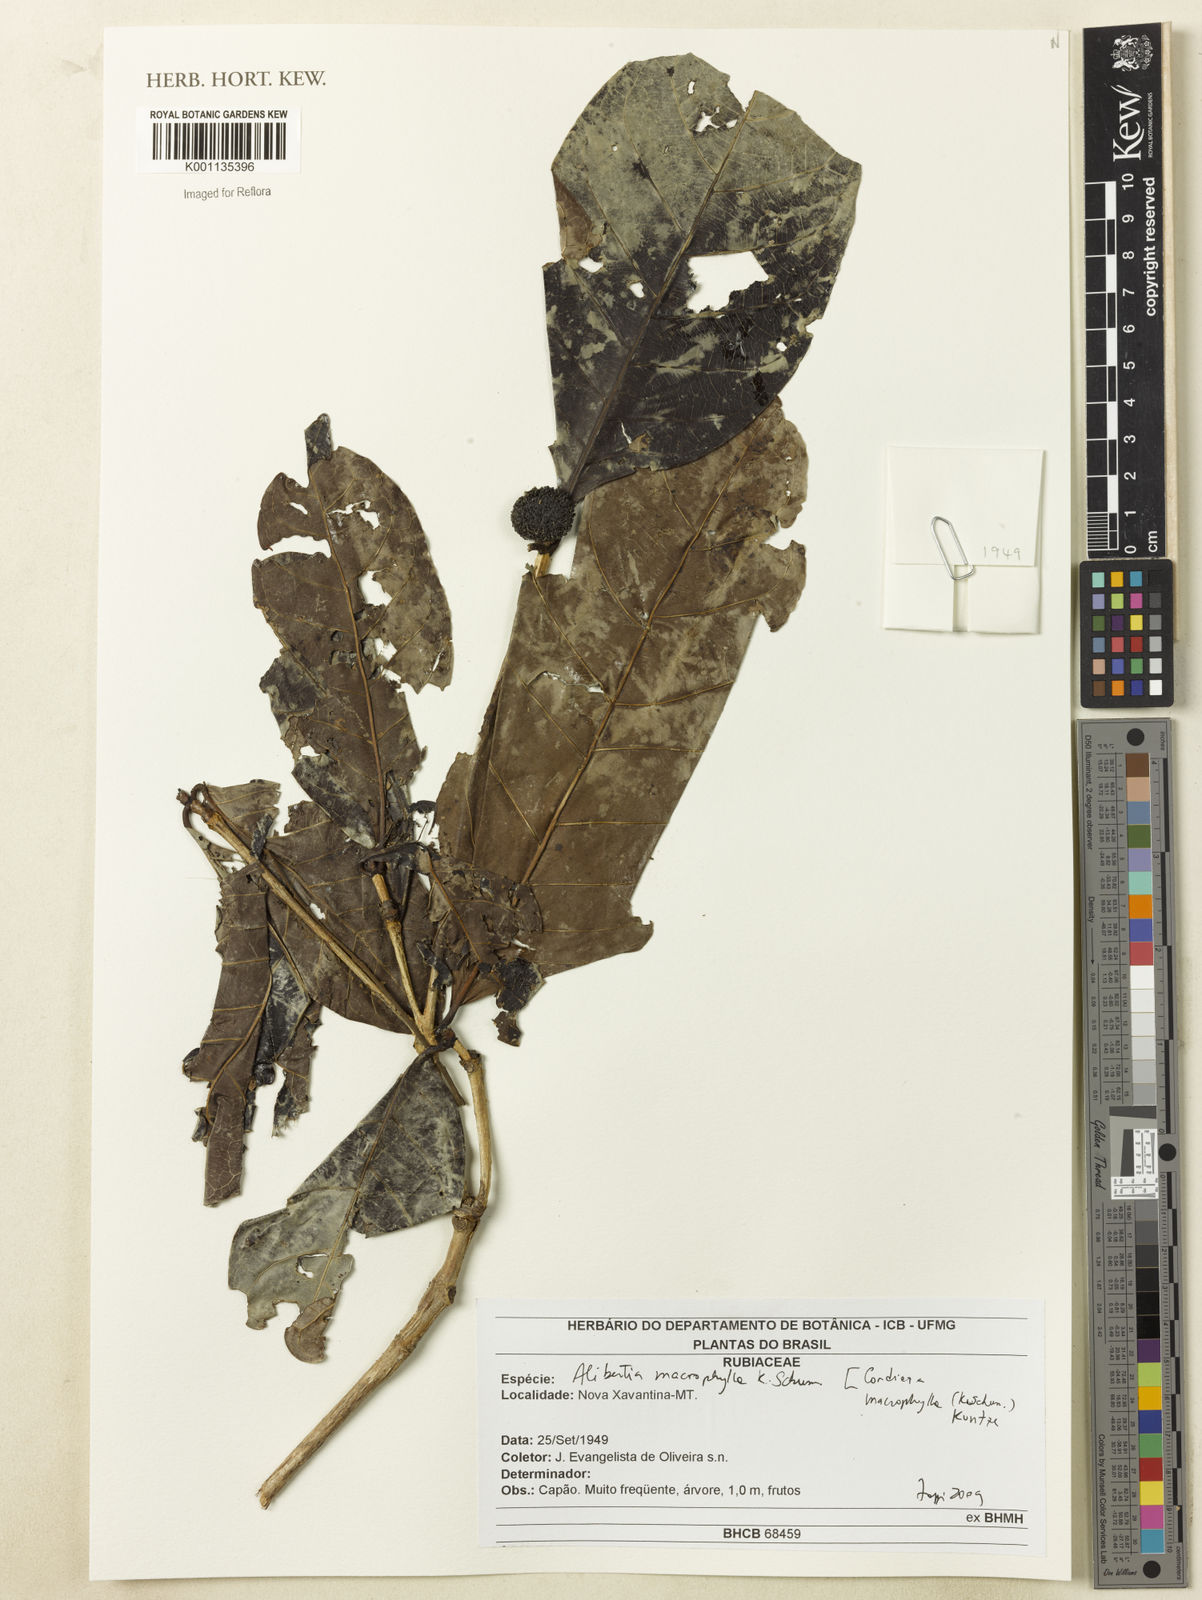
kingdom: Plantae
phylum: Tracheophyta
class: Magnoliopsida
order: Gentianales
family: Rubiaceae
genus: Cordiera
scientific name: Cordiera macrophylla
